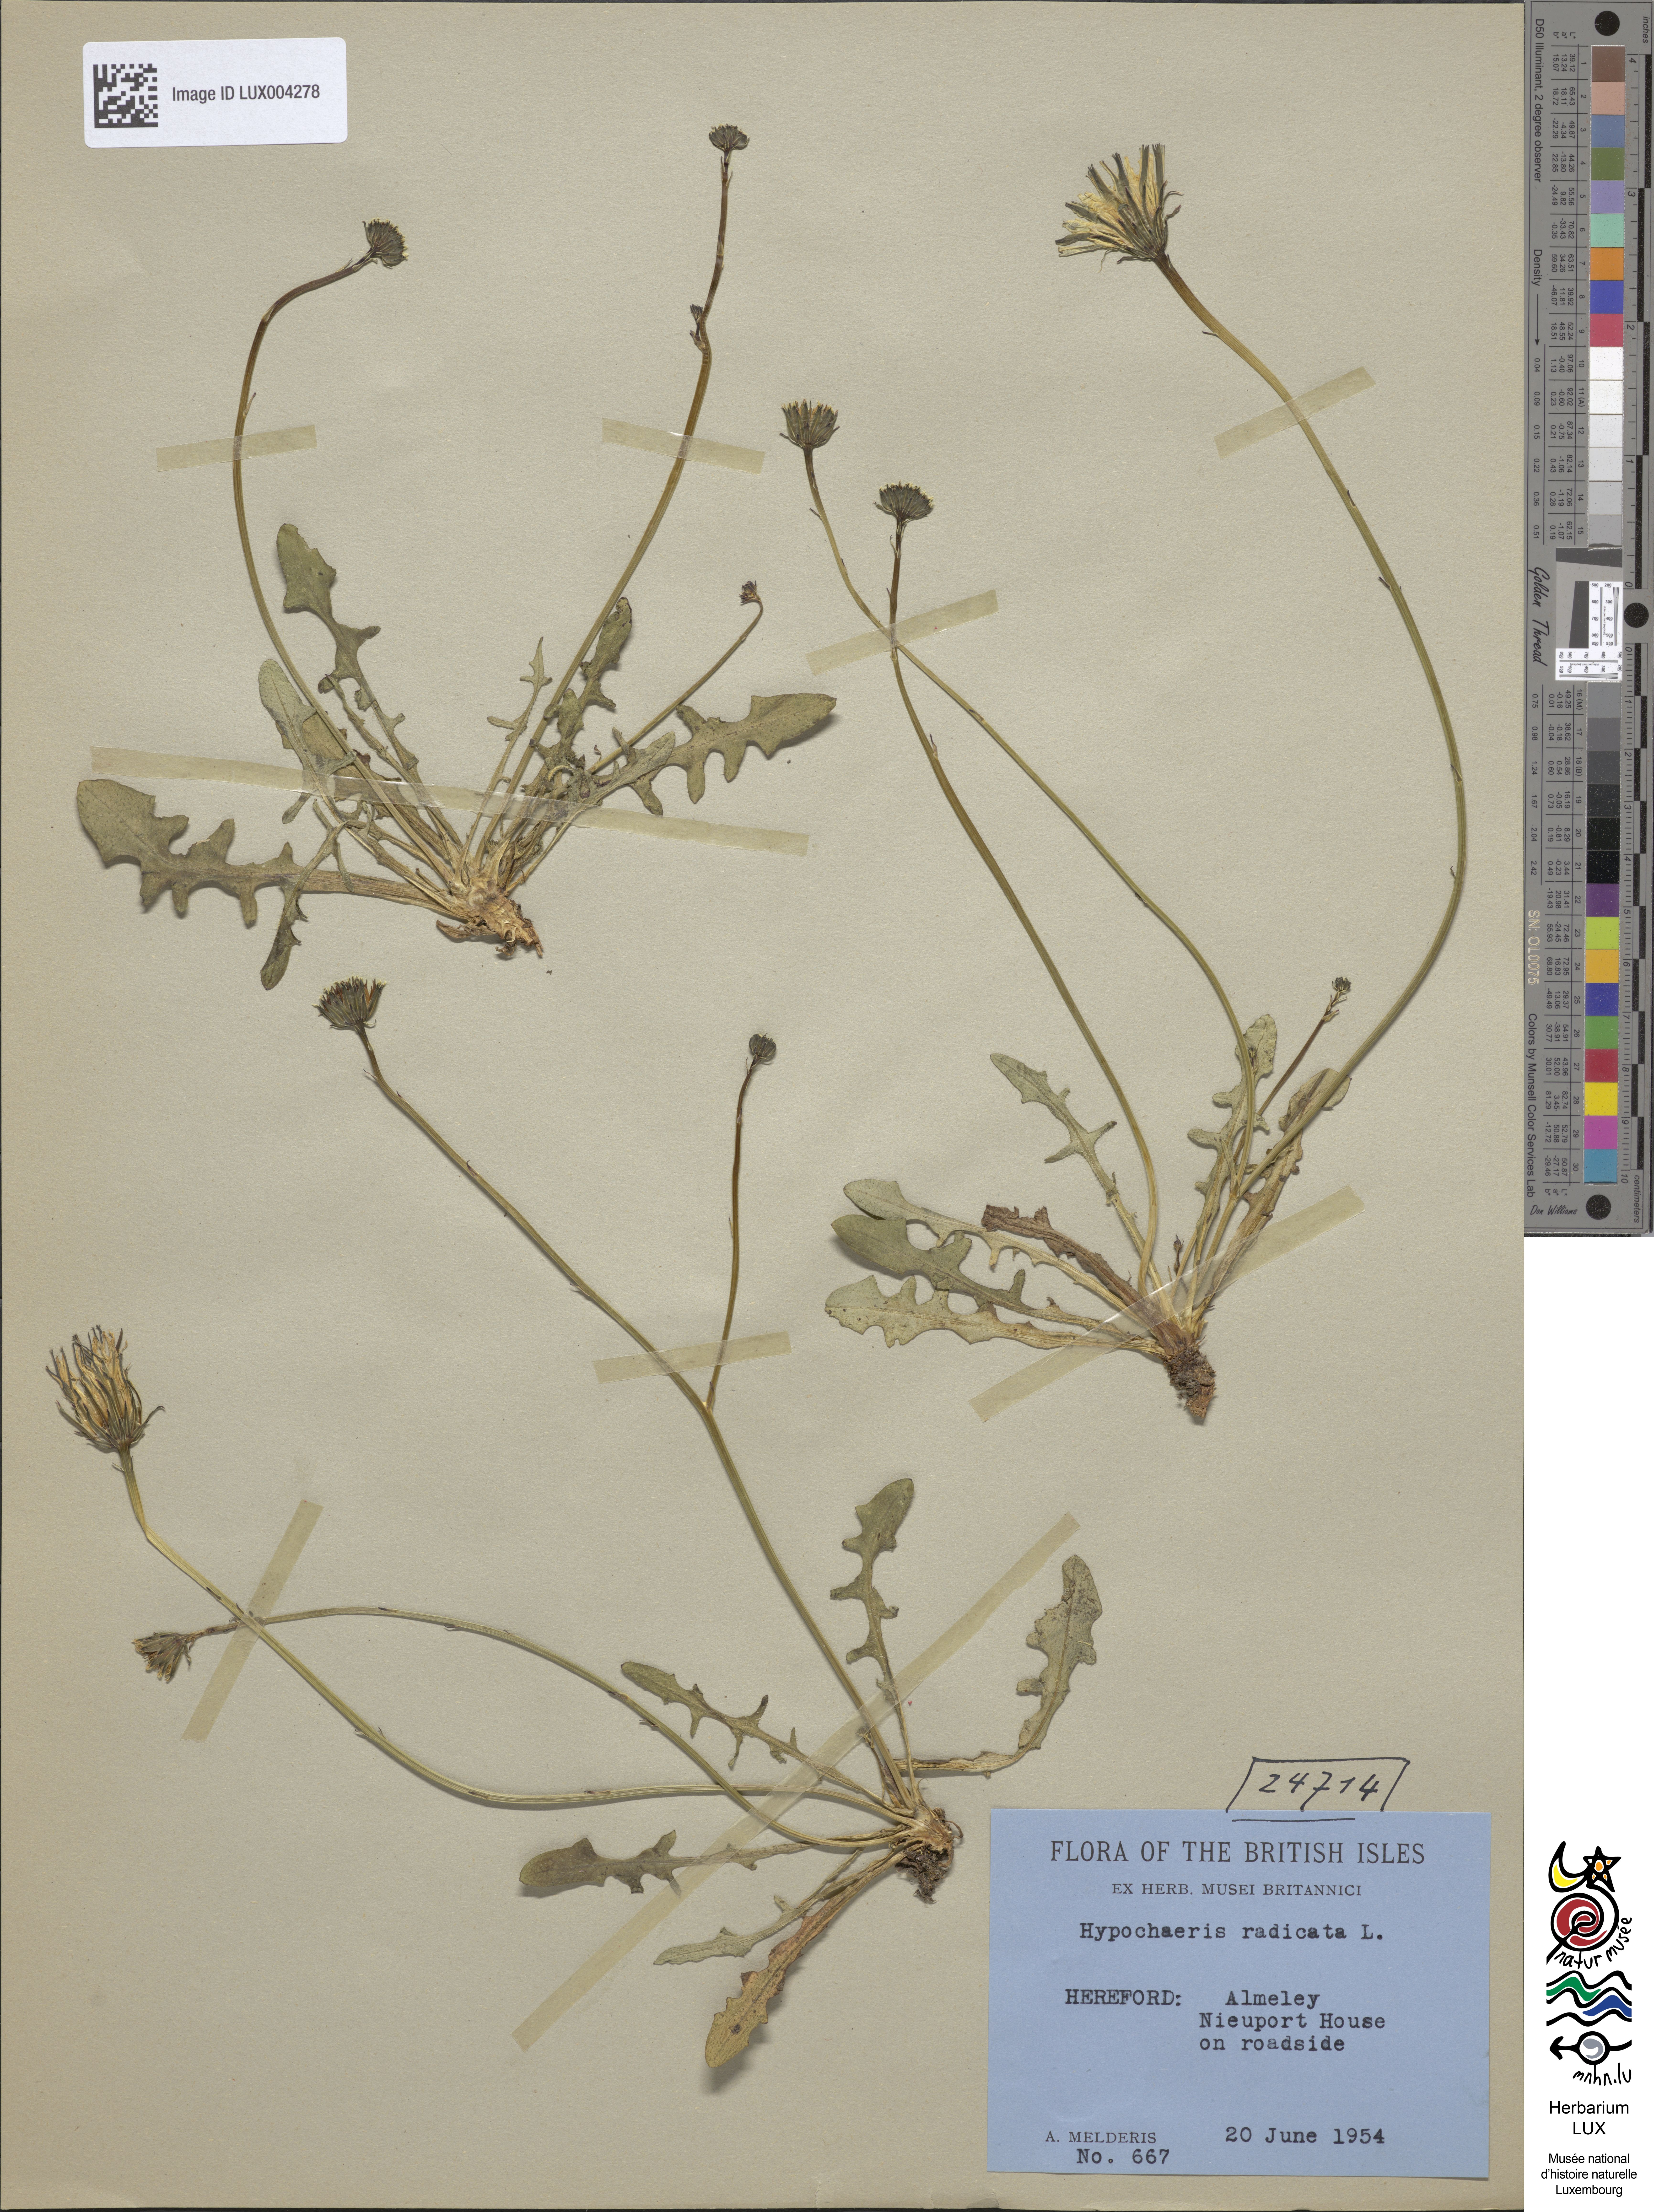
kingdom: Plantae
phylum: Tracheophyta
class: Magnoliopsida
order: Asterales
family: Asteraceae
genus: Hypochoeris
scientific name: Hypochoeris radicata
